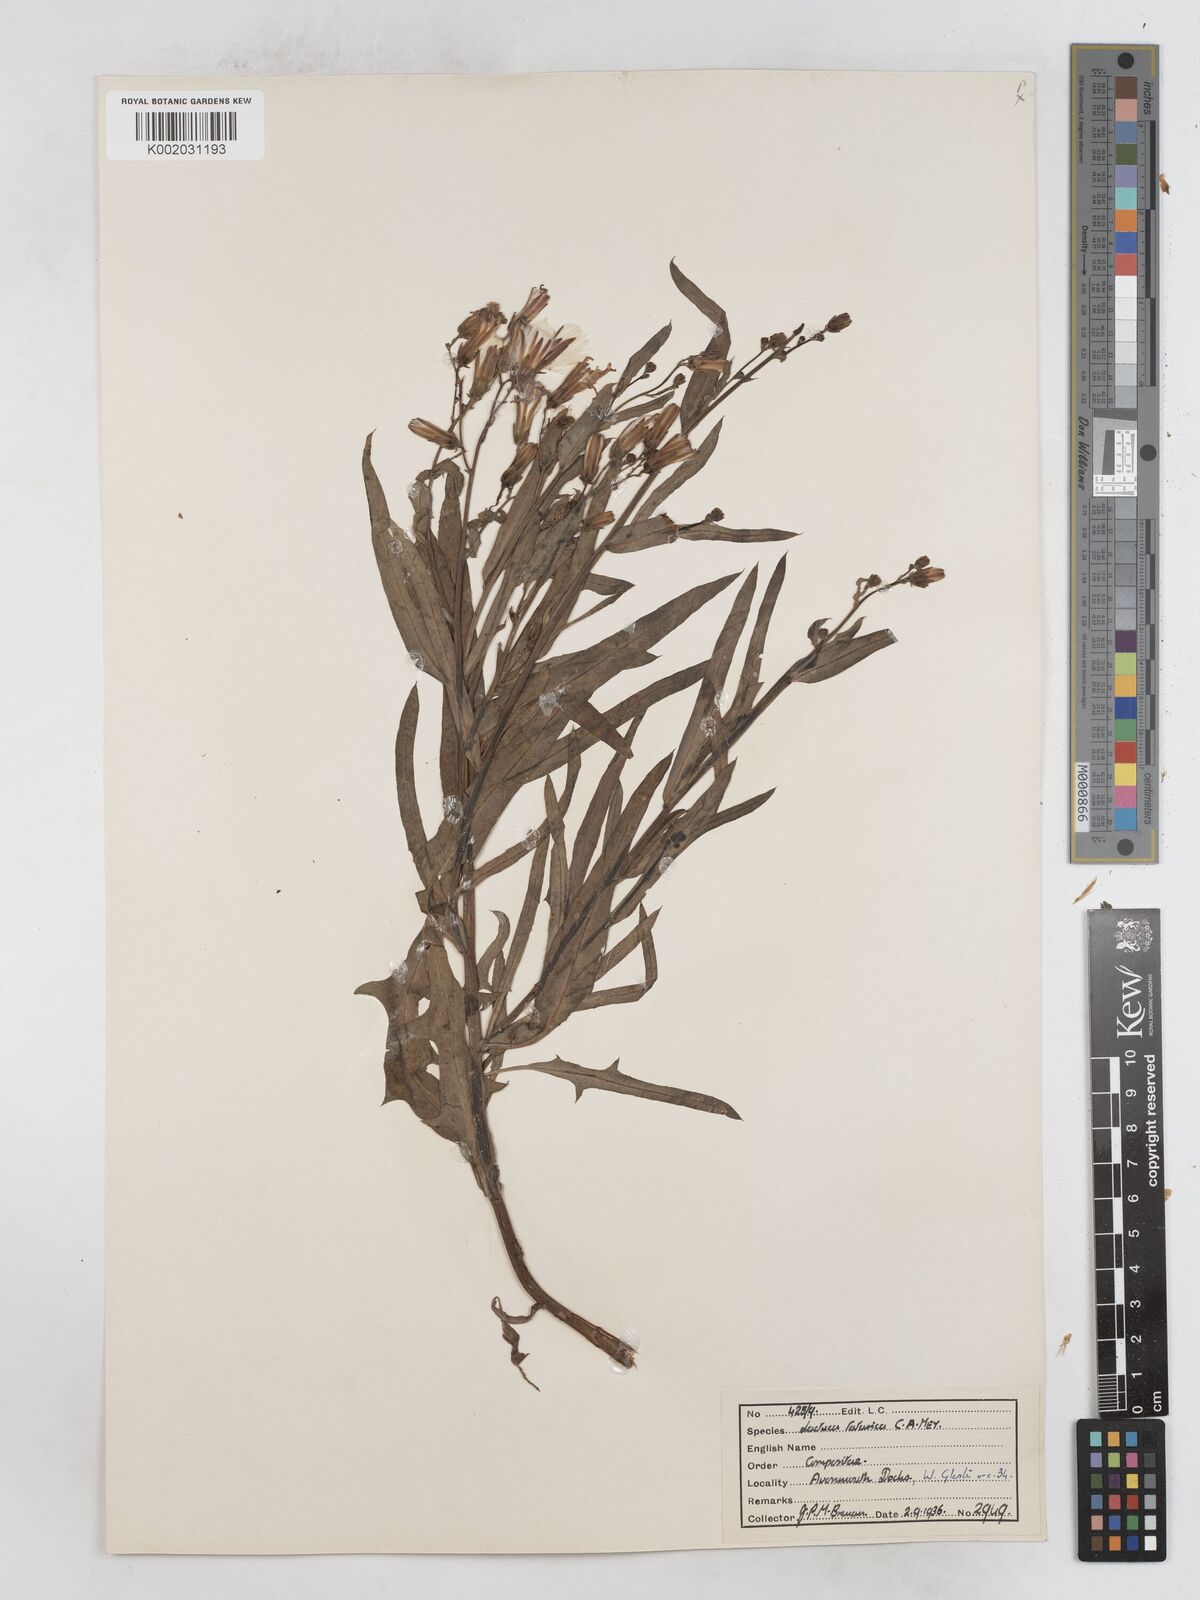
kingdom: Plantae
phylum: Tracheophyta
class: Magnoliopsida
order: Asterales
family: Asteraceae
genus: Lactuca
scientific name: Lactuca tatarica
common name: Blue lettuce
